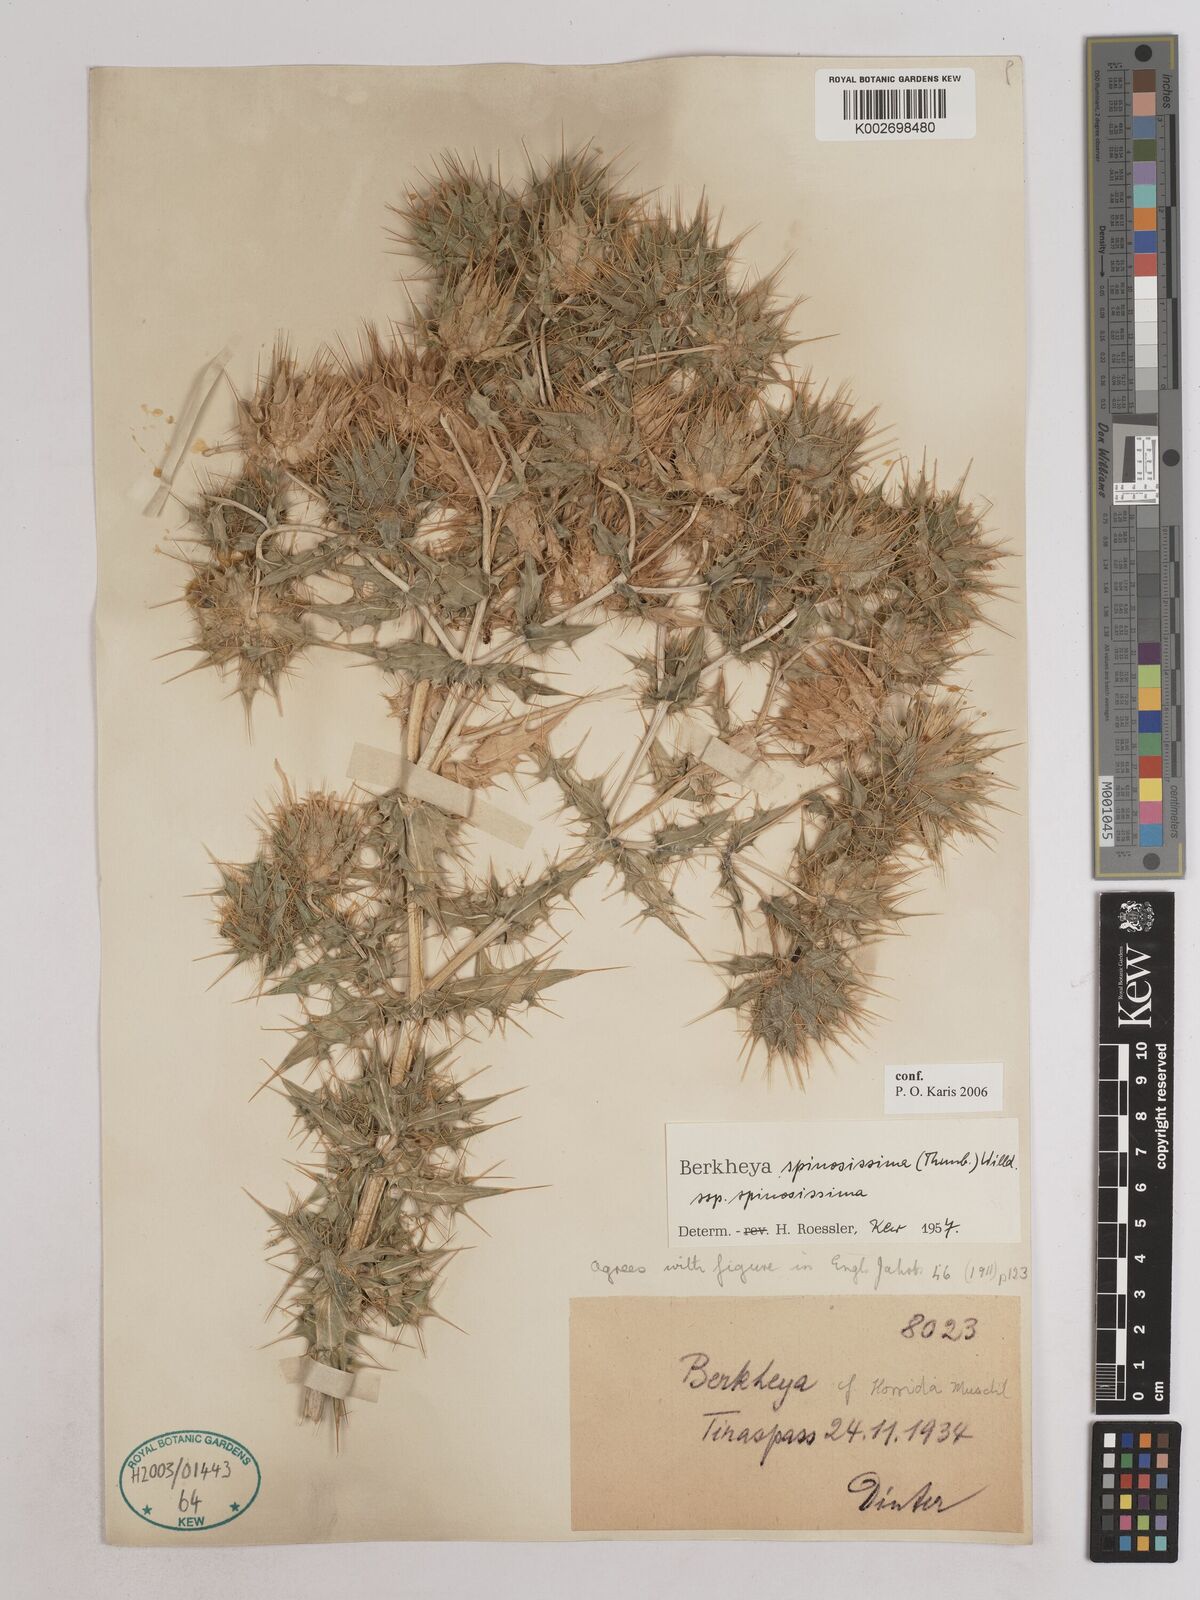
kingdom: Plantae
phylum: Tracheophyta
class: Magnoliopsida
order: Asterales
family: Asteraceae
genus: Berkheya
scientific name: Berkheya spinosissima
